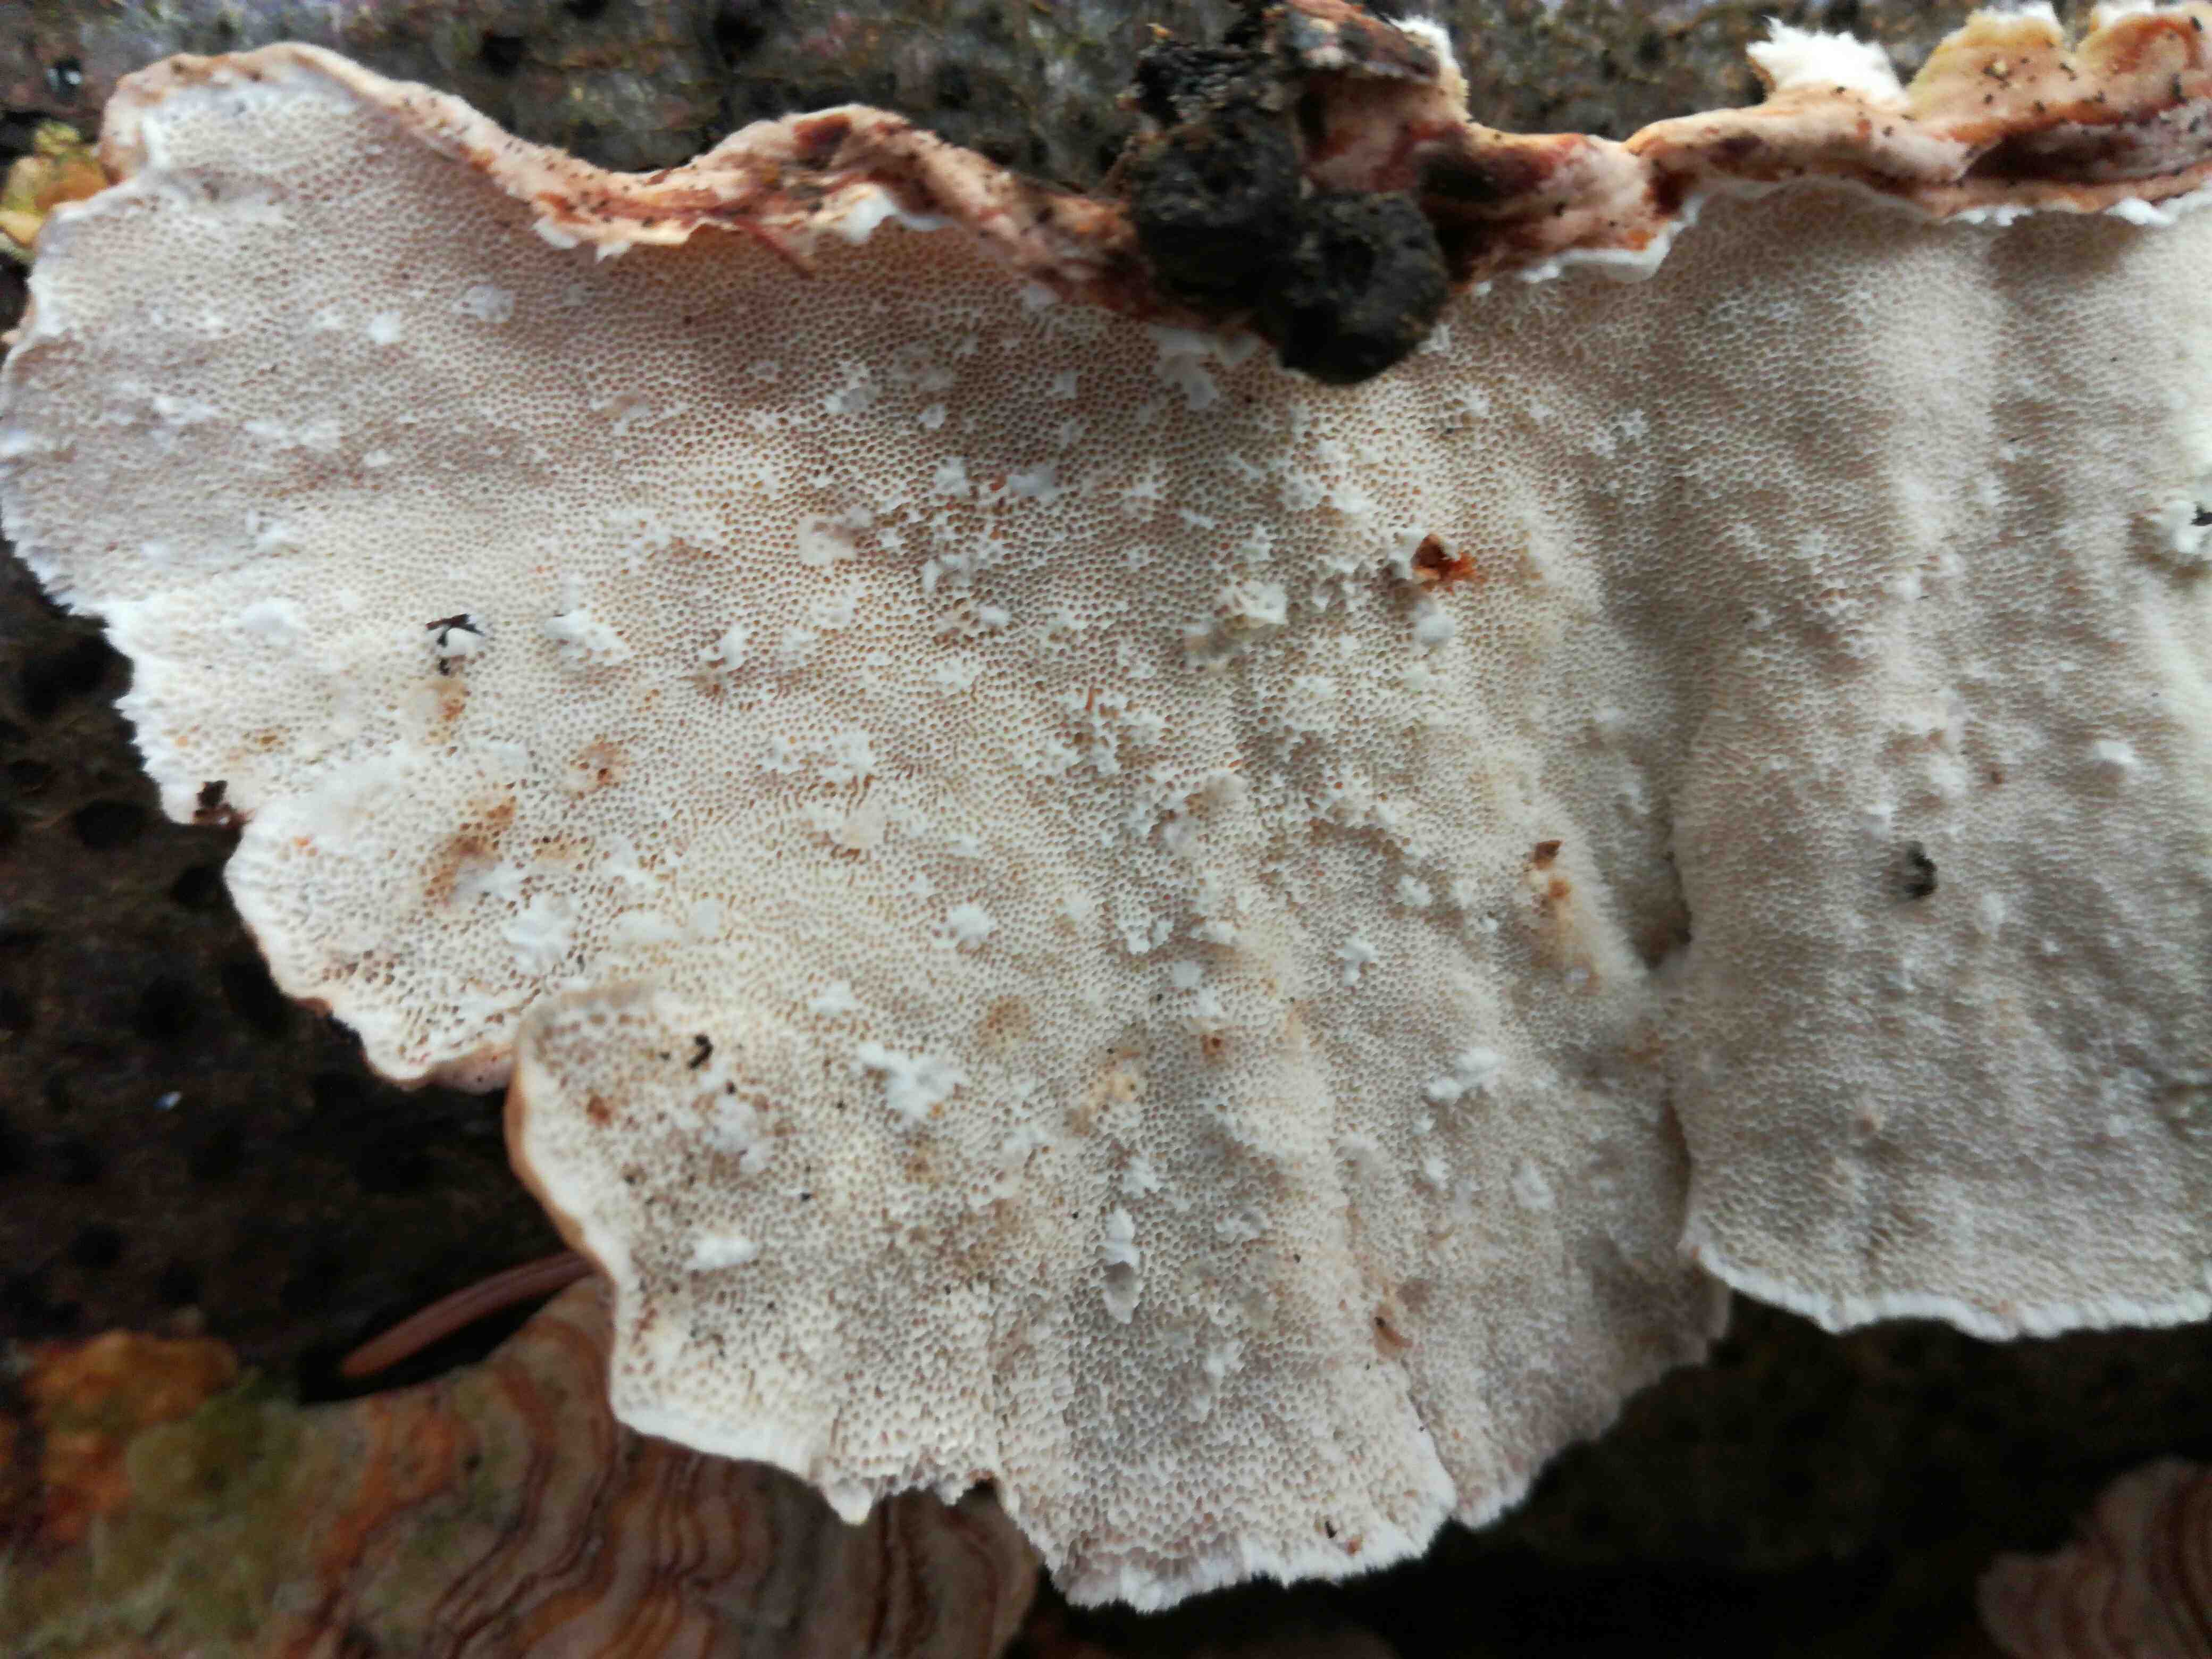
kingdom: Fungi
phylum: Basidiomycota
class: Agaricomycetes
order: Polyporales
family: Polyporaceae
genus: Trametes
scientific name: Trametes
